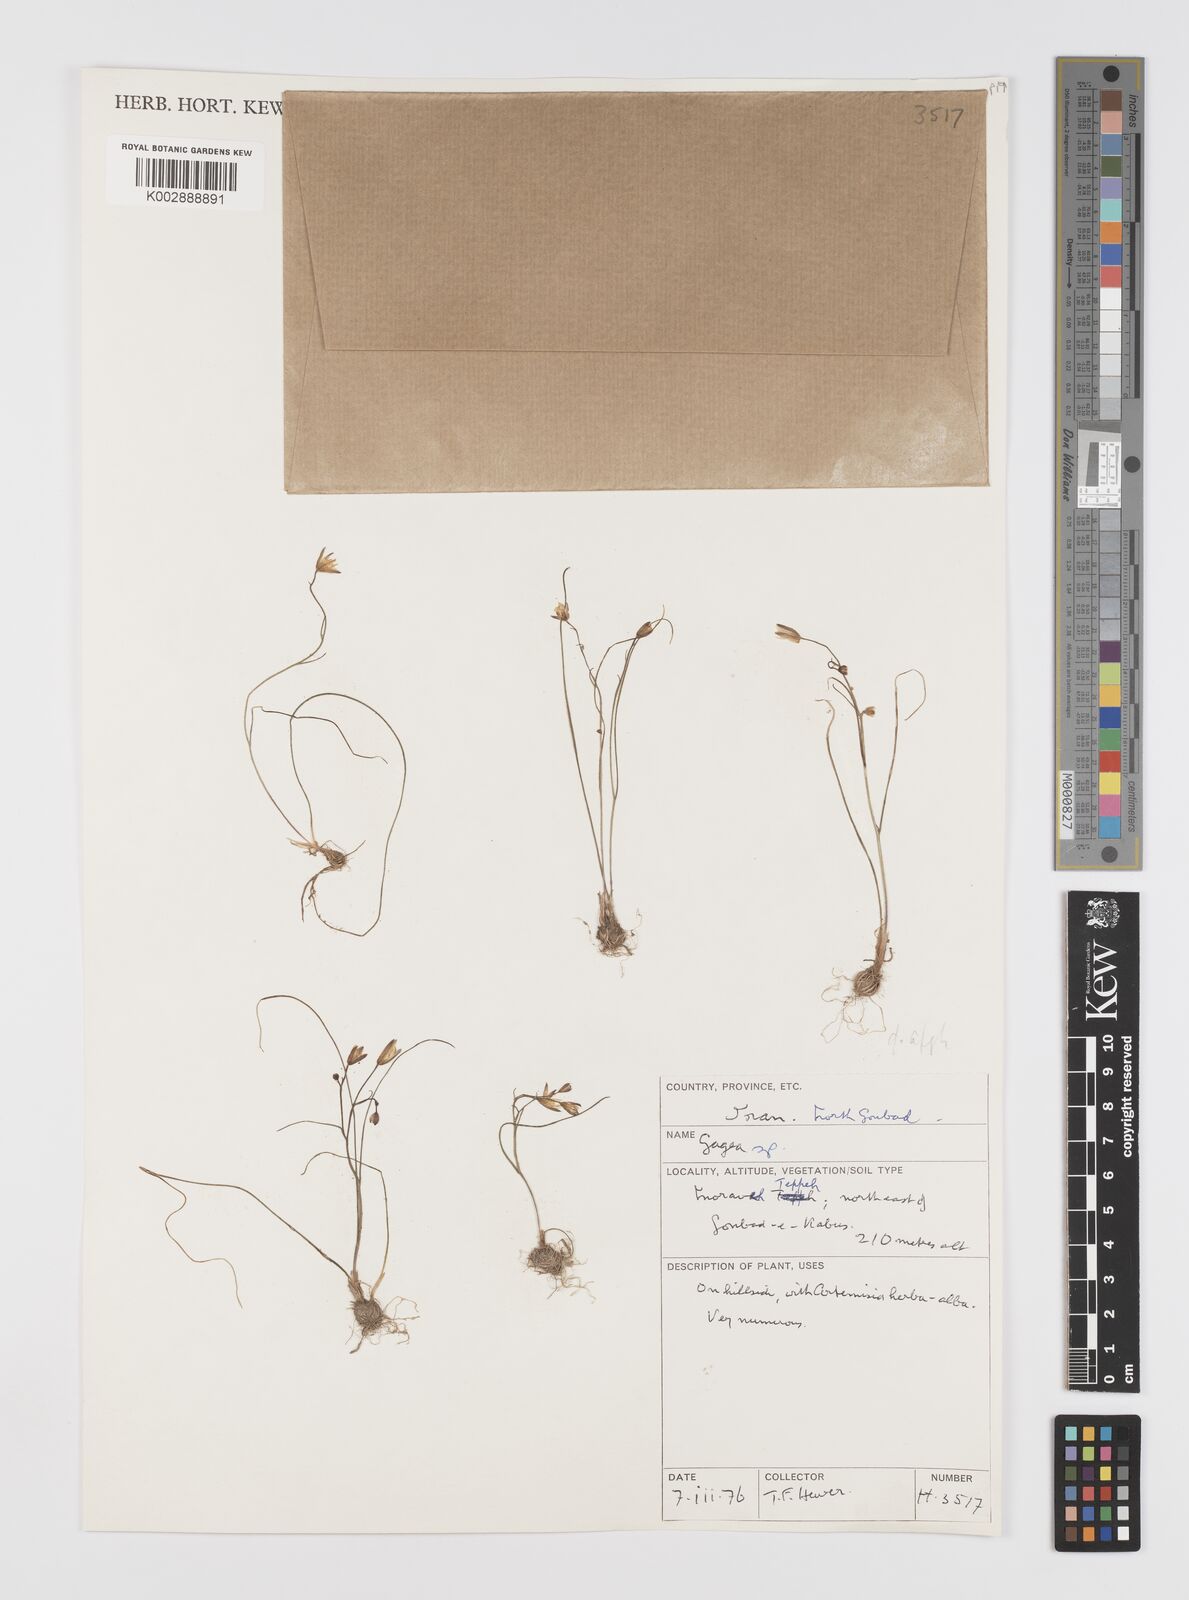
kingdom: Plantae
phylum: Tracheophyta
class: Liliopsida
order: Liliales
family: Liliaceae
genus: Gagea
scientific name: Gagea
